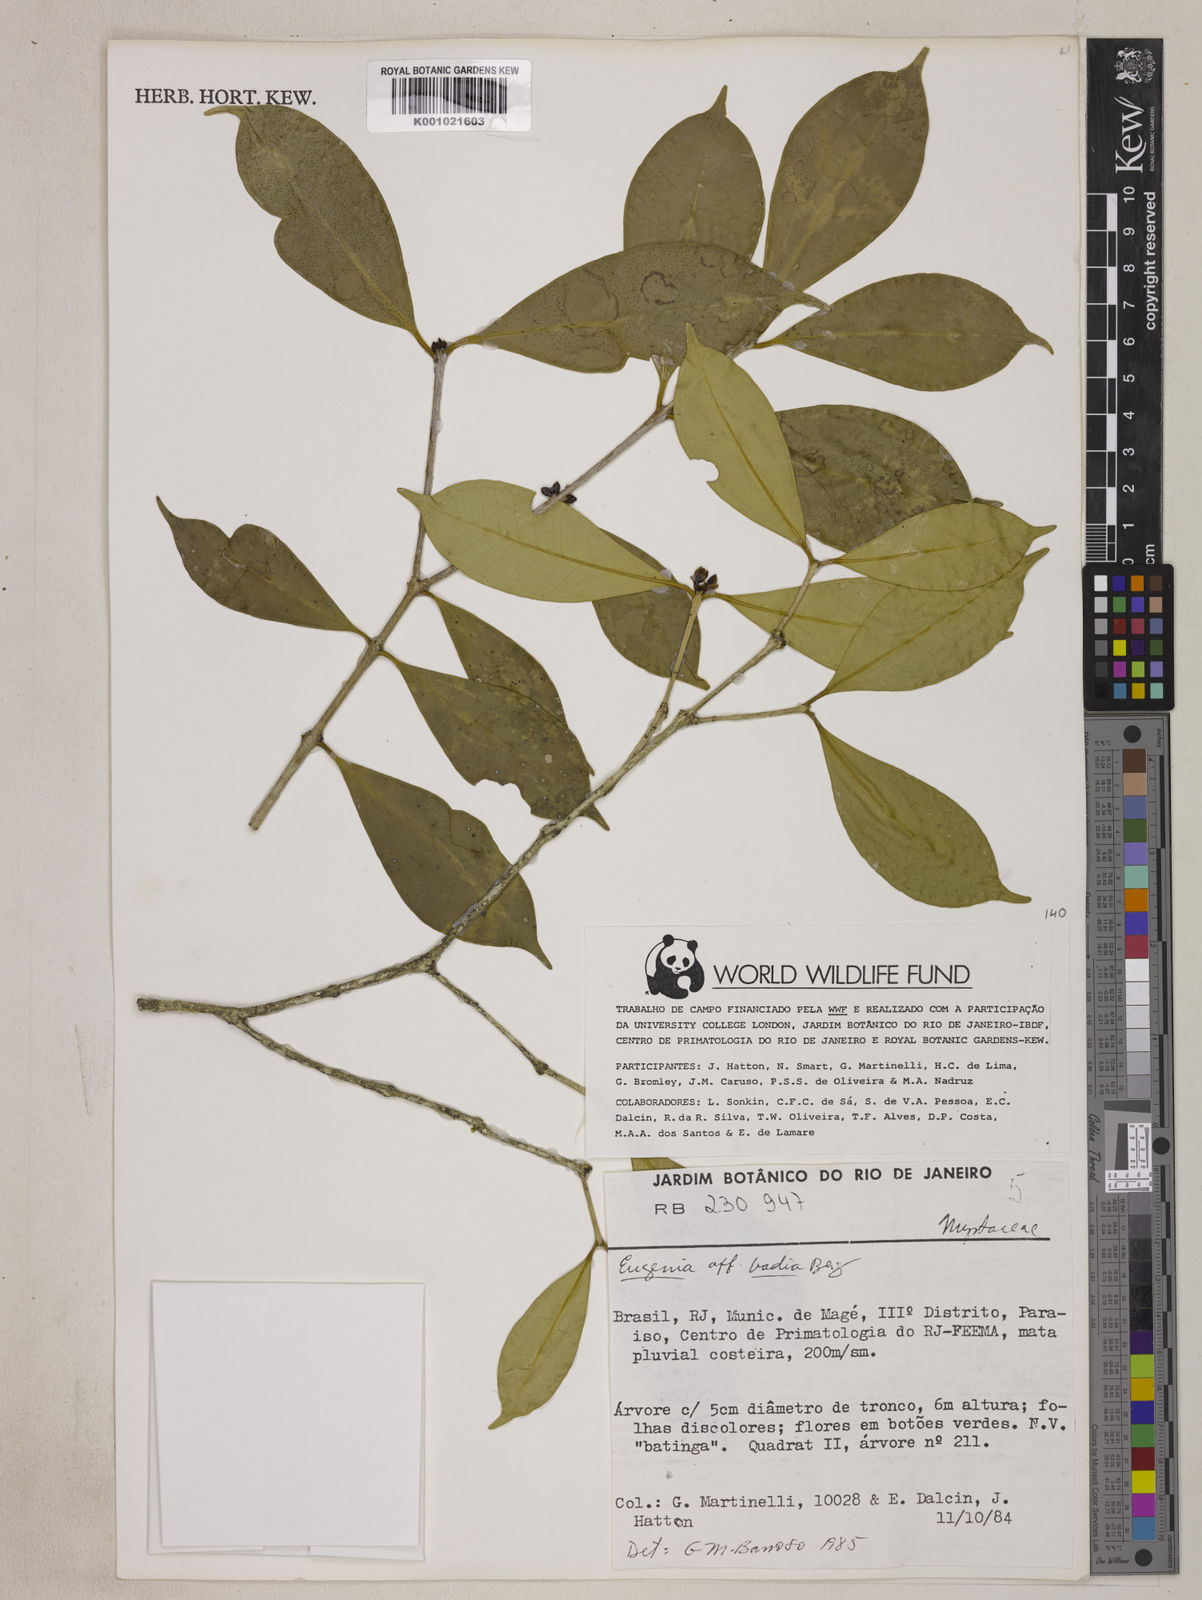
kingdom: Plantae
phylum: Tracheophyta
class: Magnoliopsida
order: Myrtales
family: Myrtaceae
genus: Eugenia
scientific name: Eugenia badia
